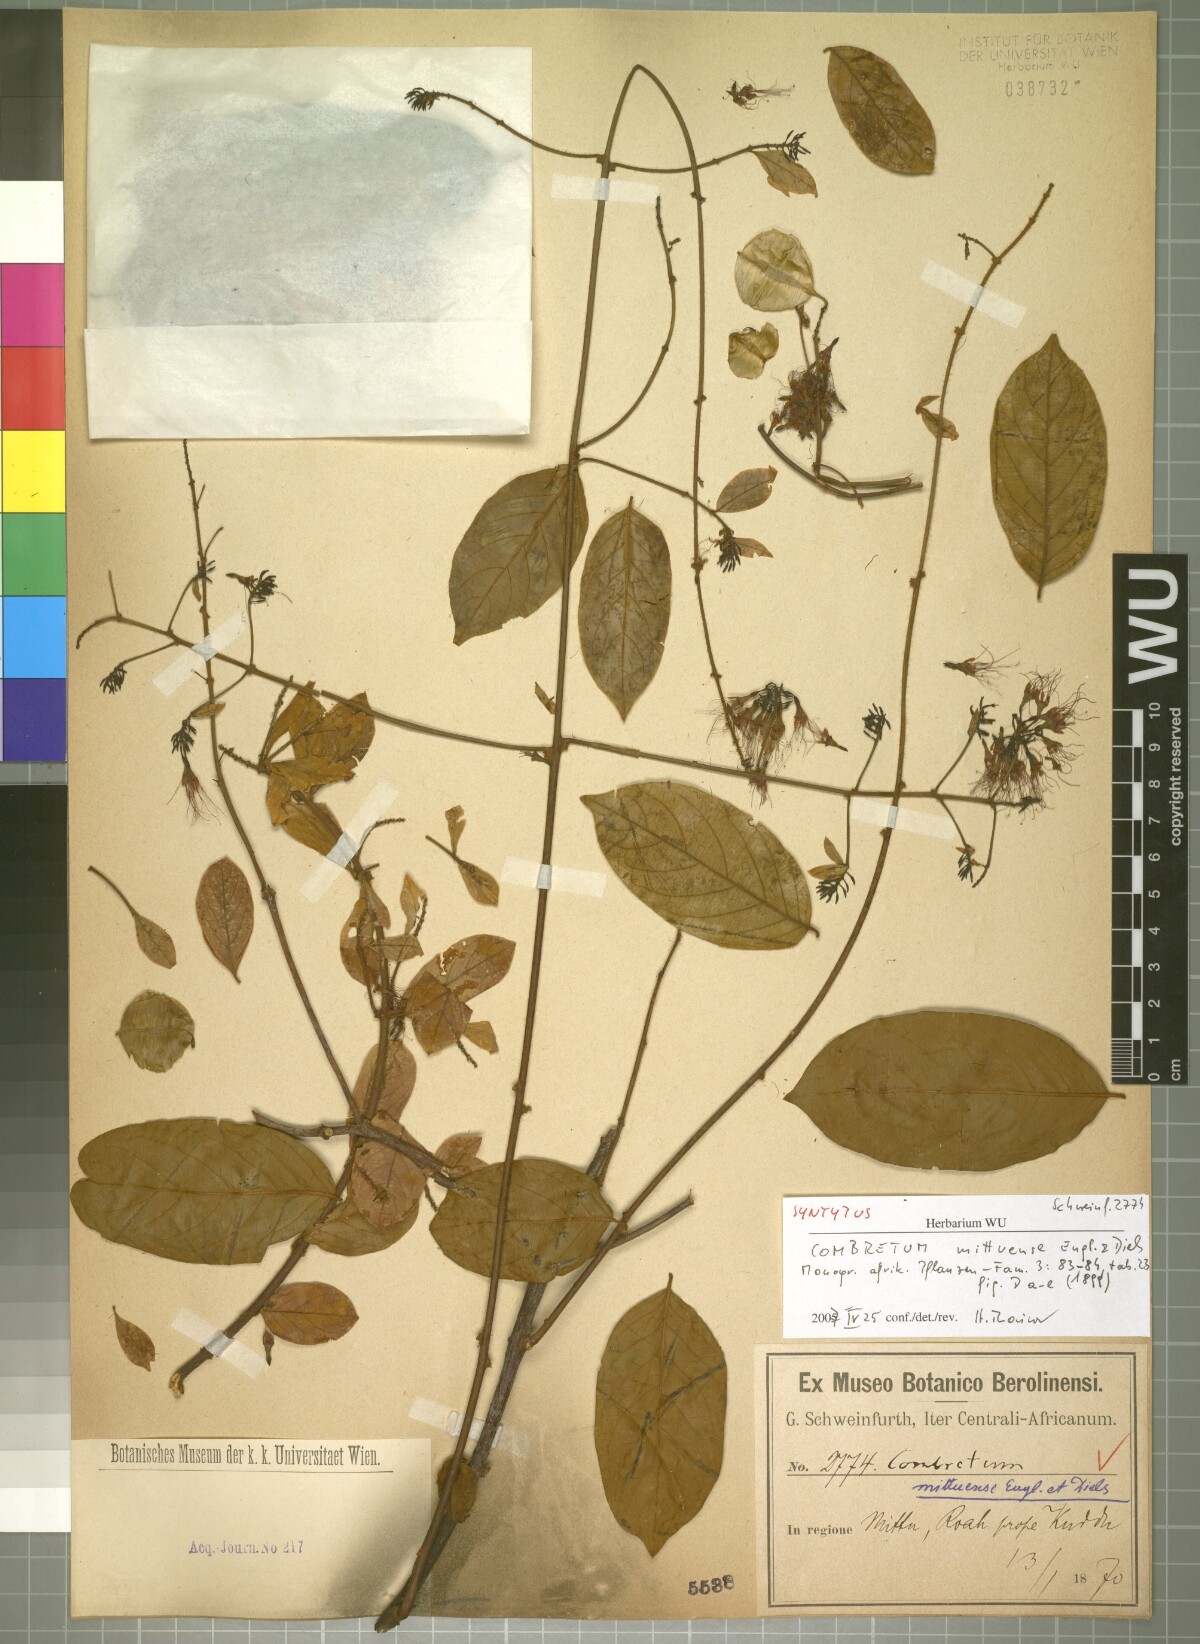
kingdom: Plantae
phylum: Tracheophyta
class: Magnoliopsida
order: Myrtales
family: Combretaceae
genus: Combretum
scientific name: Combretum cinereopetalum
